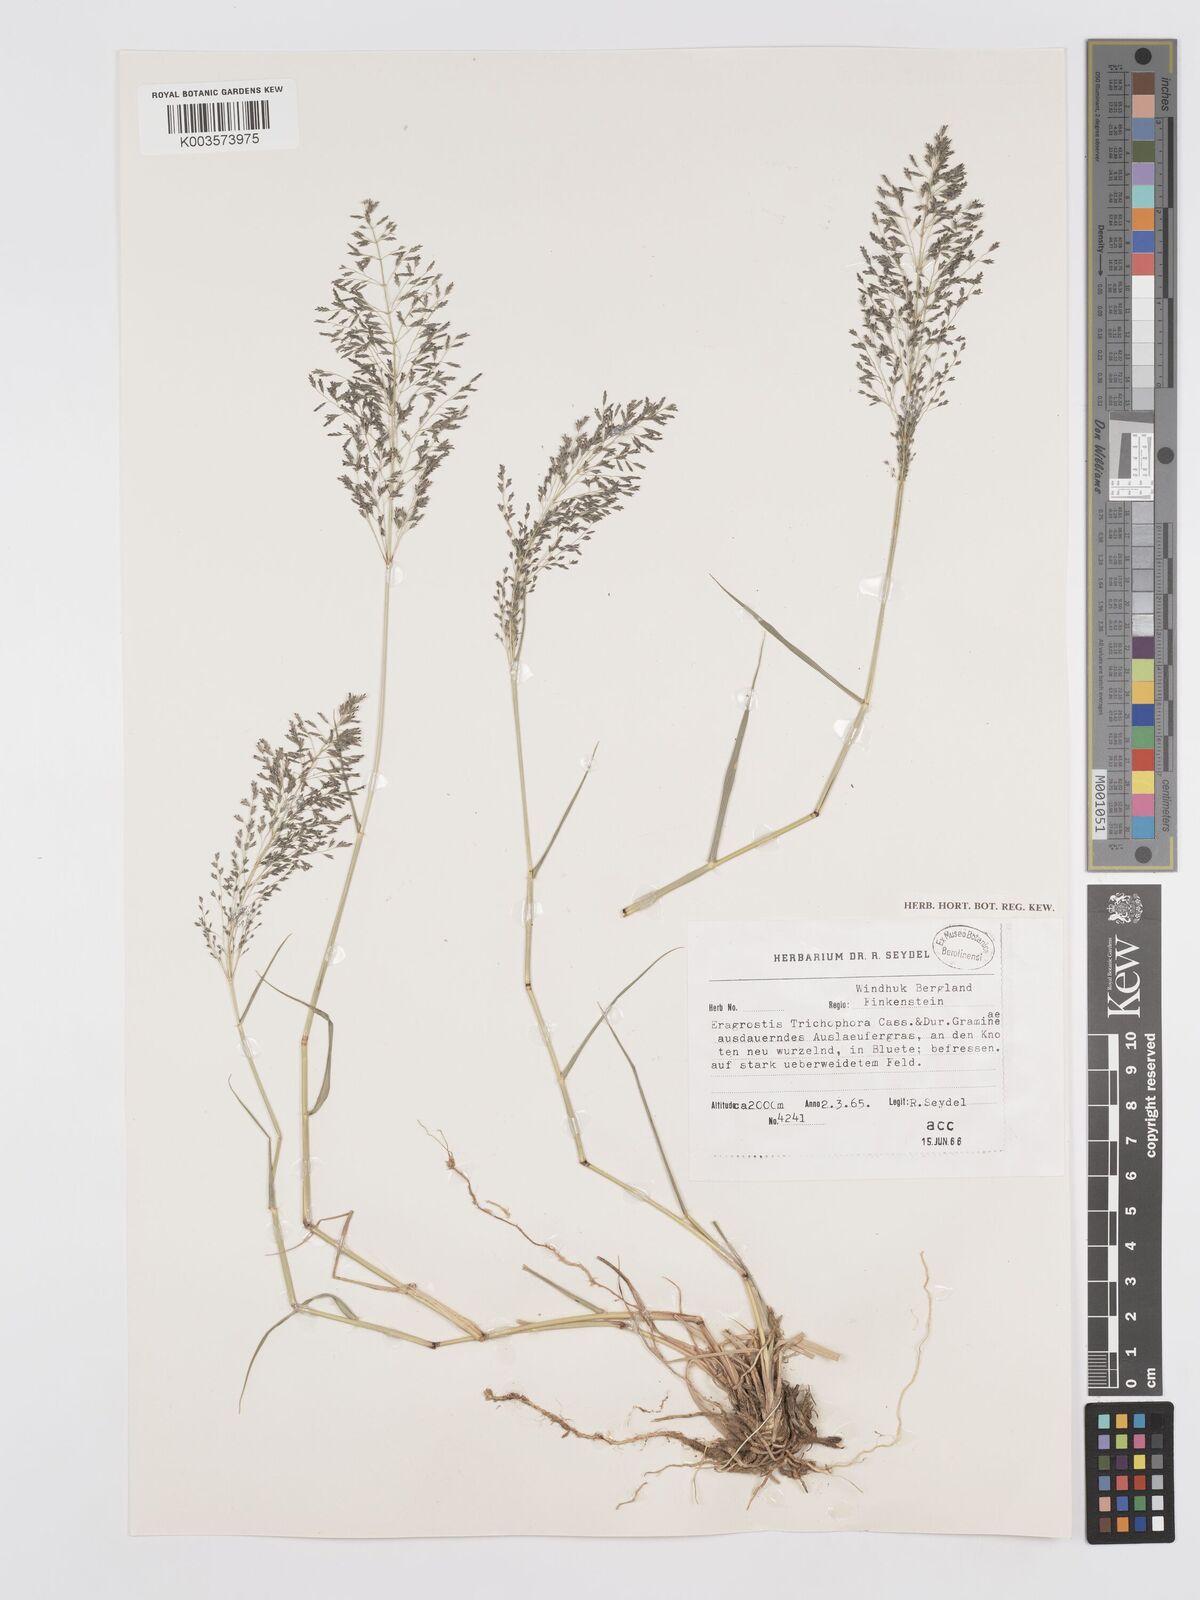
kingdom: Plantae
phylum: Tracheophyta
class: Liliopsida
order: Poales
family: Poaceae
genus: Eragrostis
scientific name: Eragrostis cylindriflora
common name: Cylinderflower lovegrass
